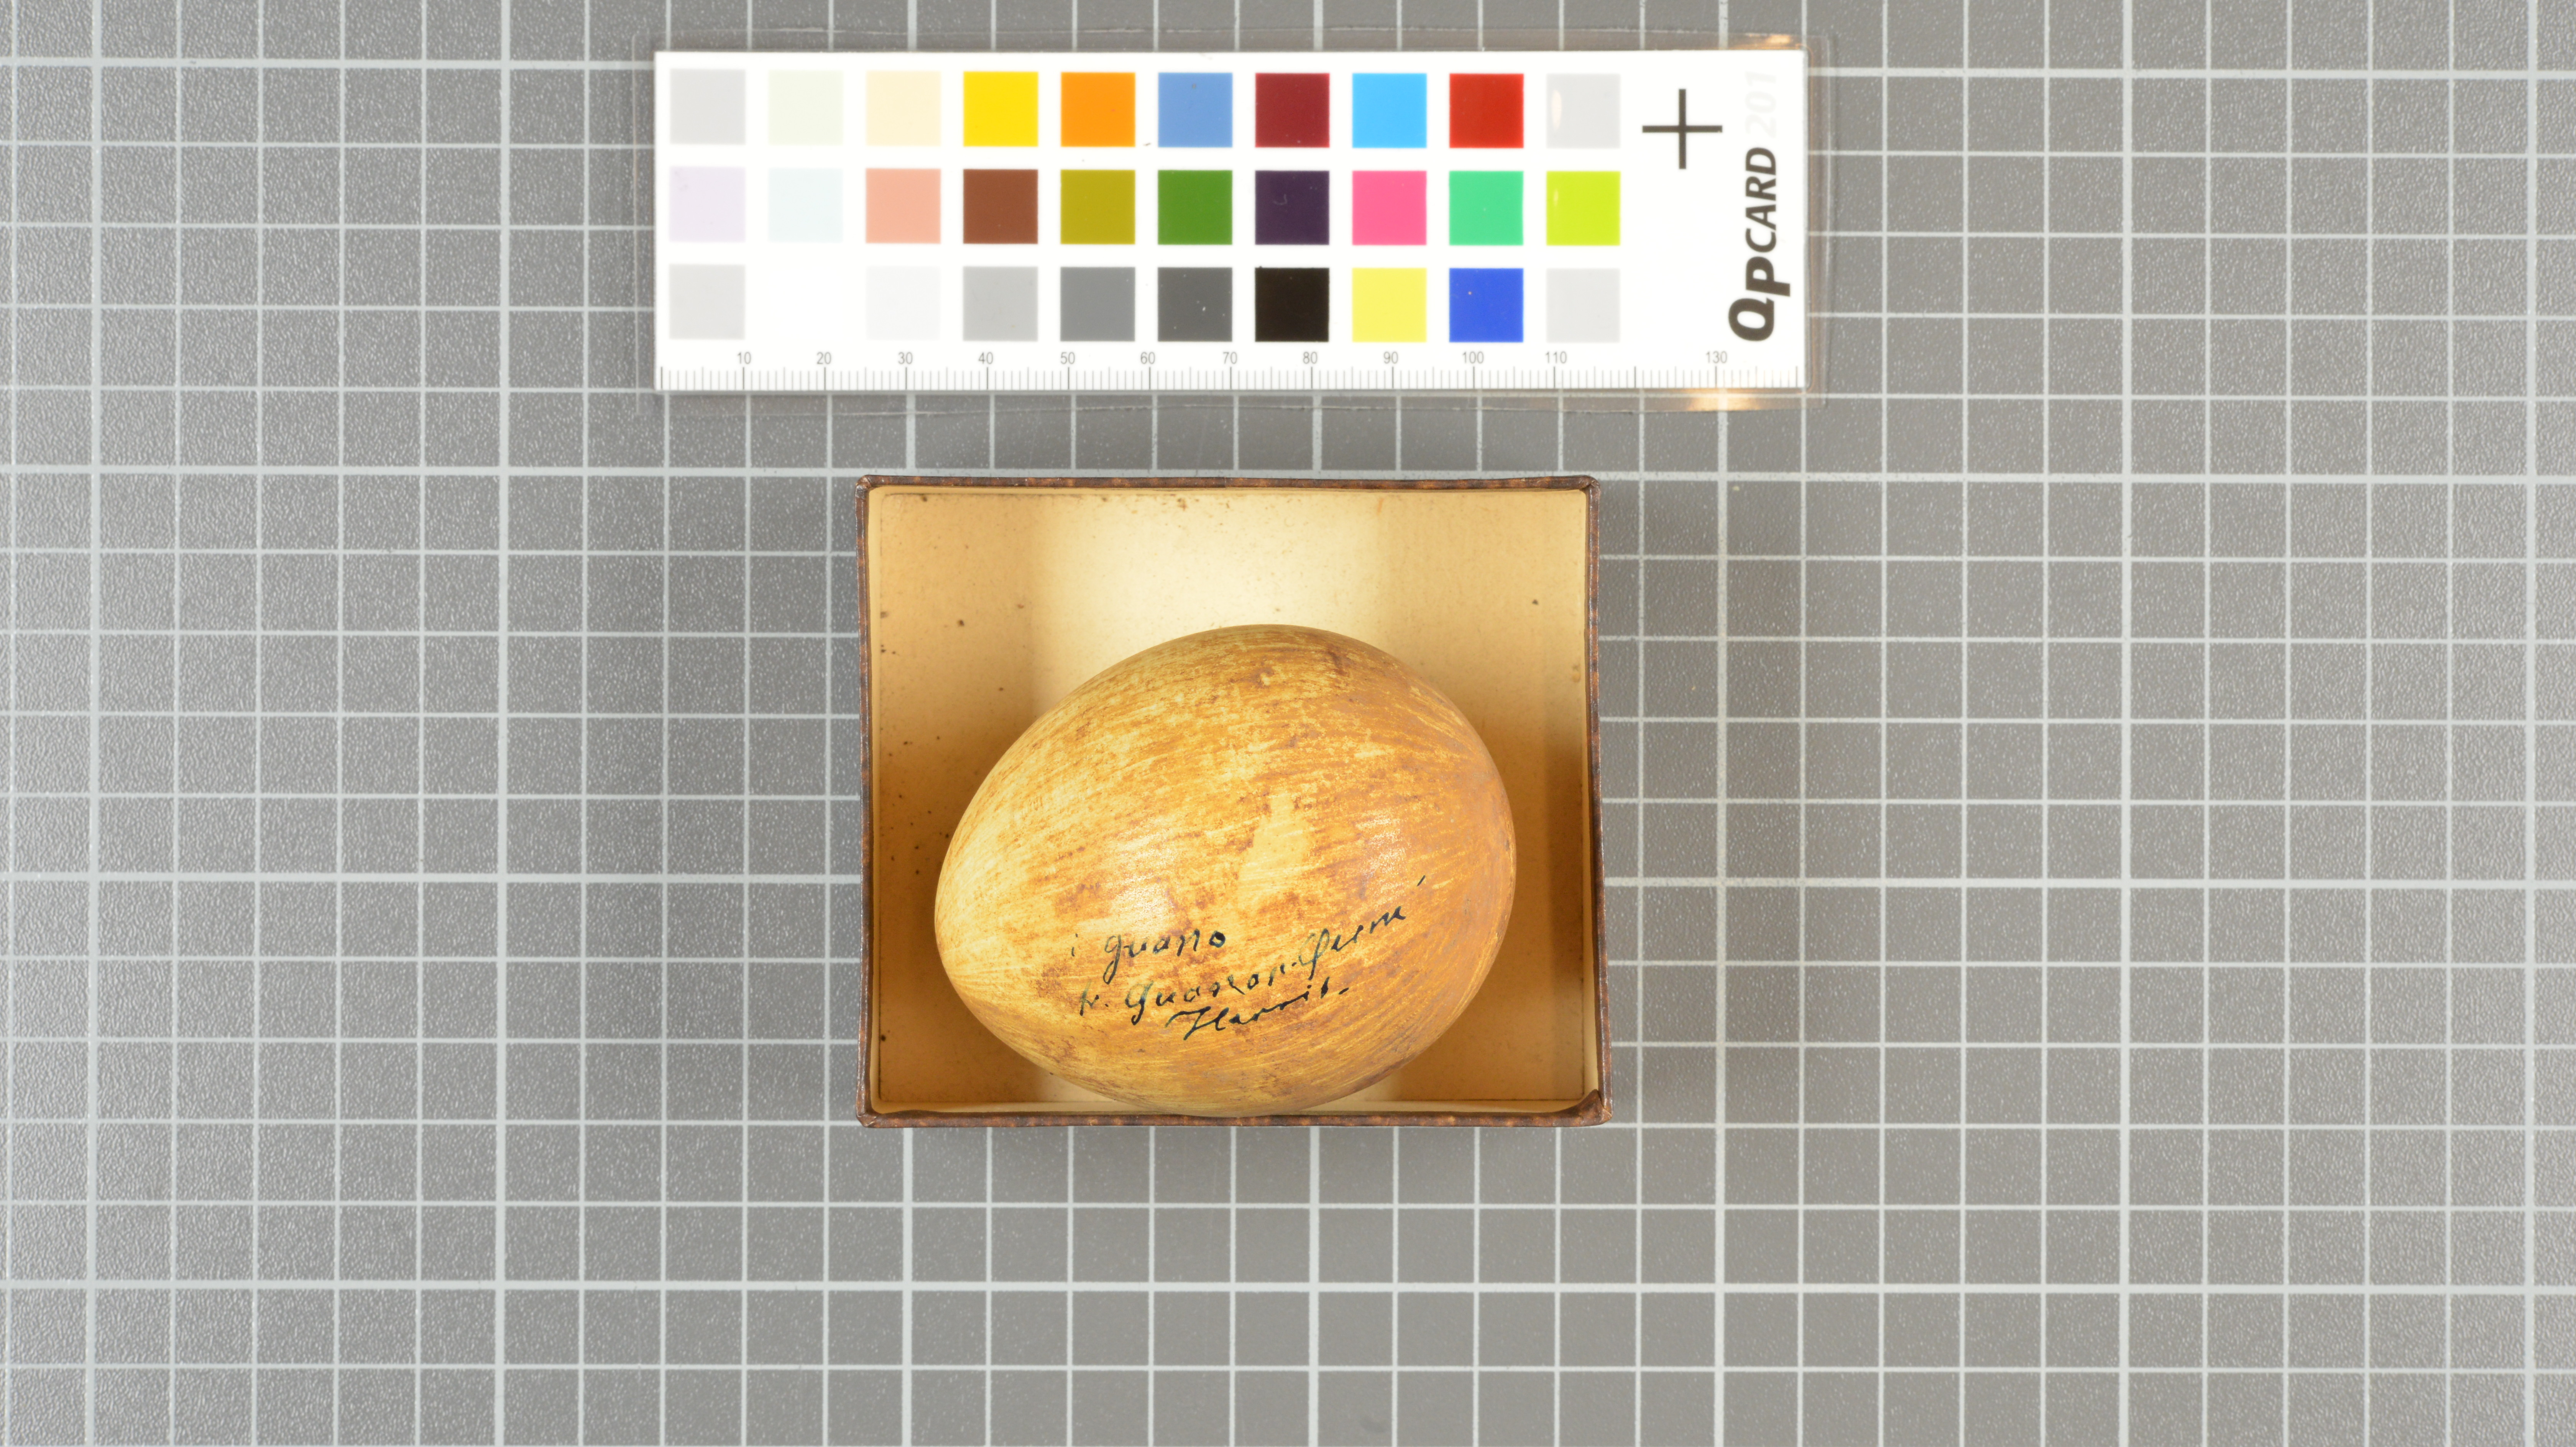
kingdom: Animalia
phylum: Chordata
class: Aves
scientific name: Aves
